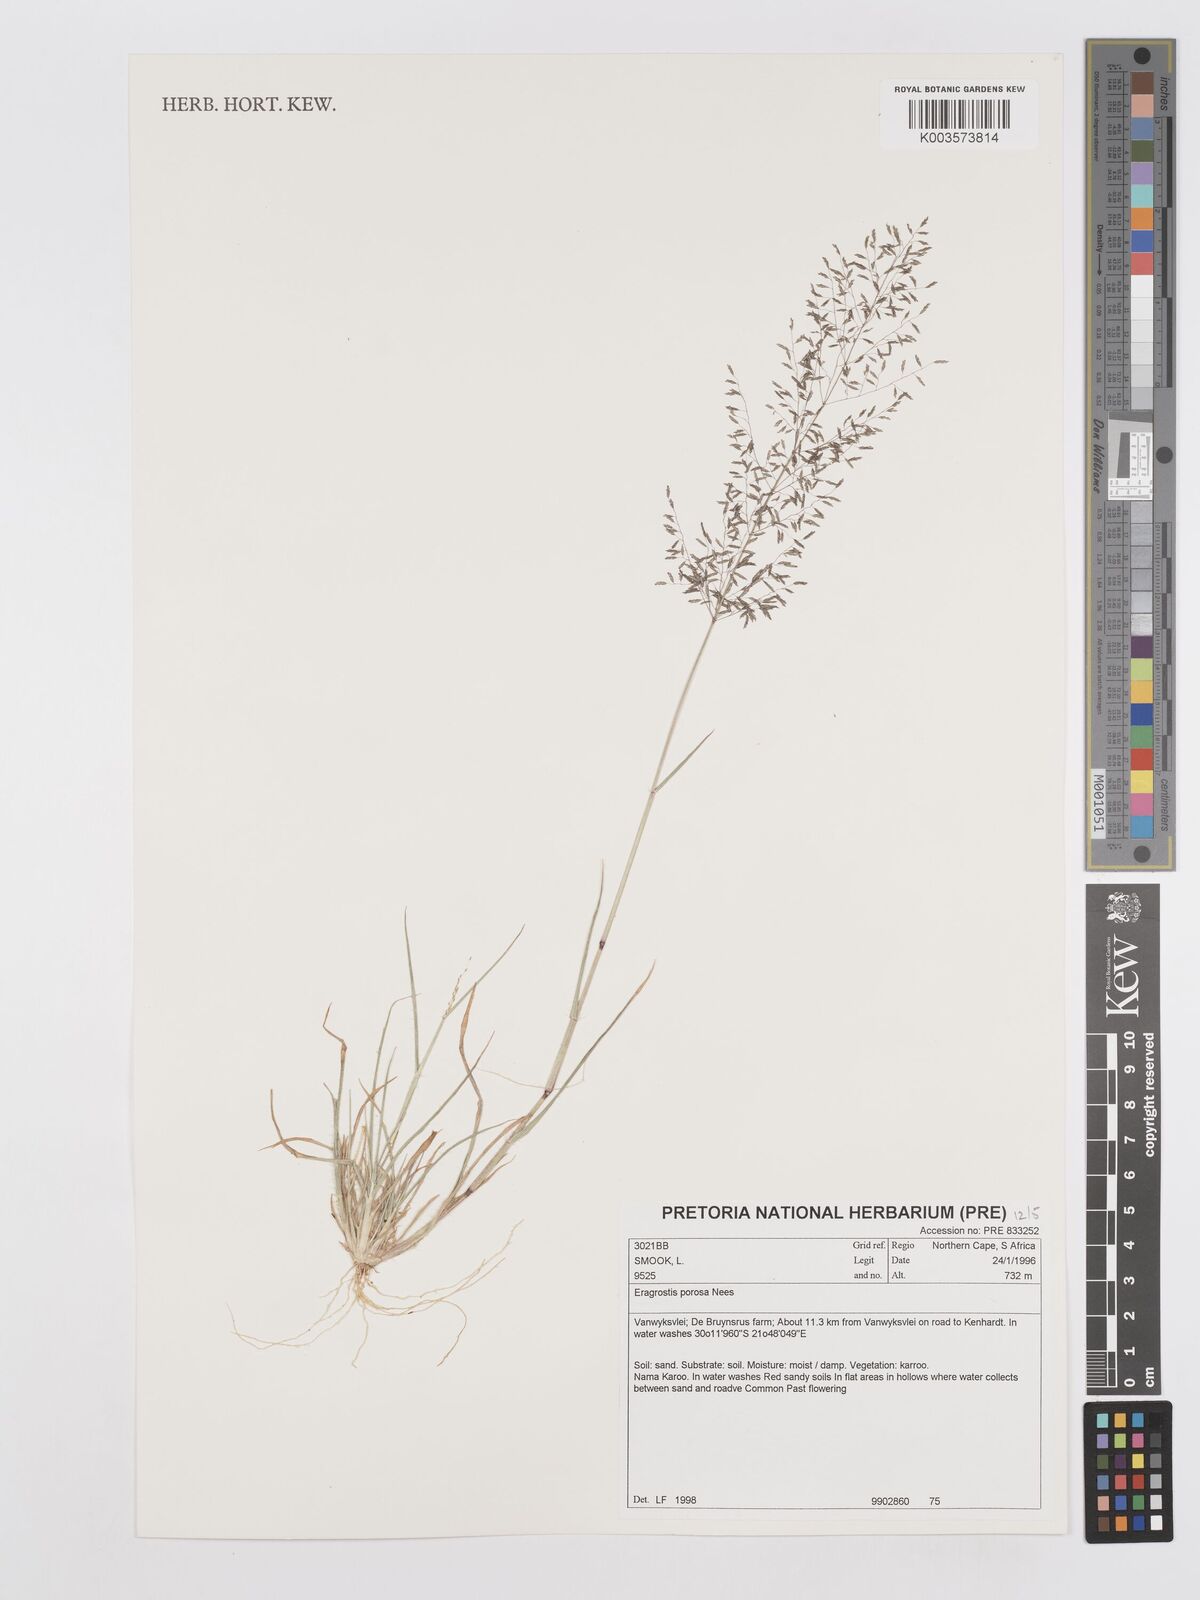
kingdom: Plantae
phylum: Tracheophyta
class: Liliopsida
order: Poales
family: Poaceae
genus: Eragrostis
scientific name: Eragrostis porosa
